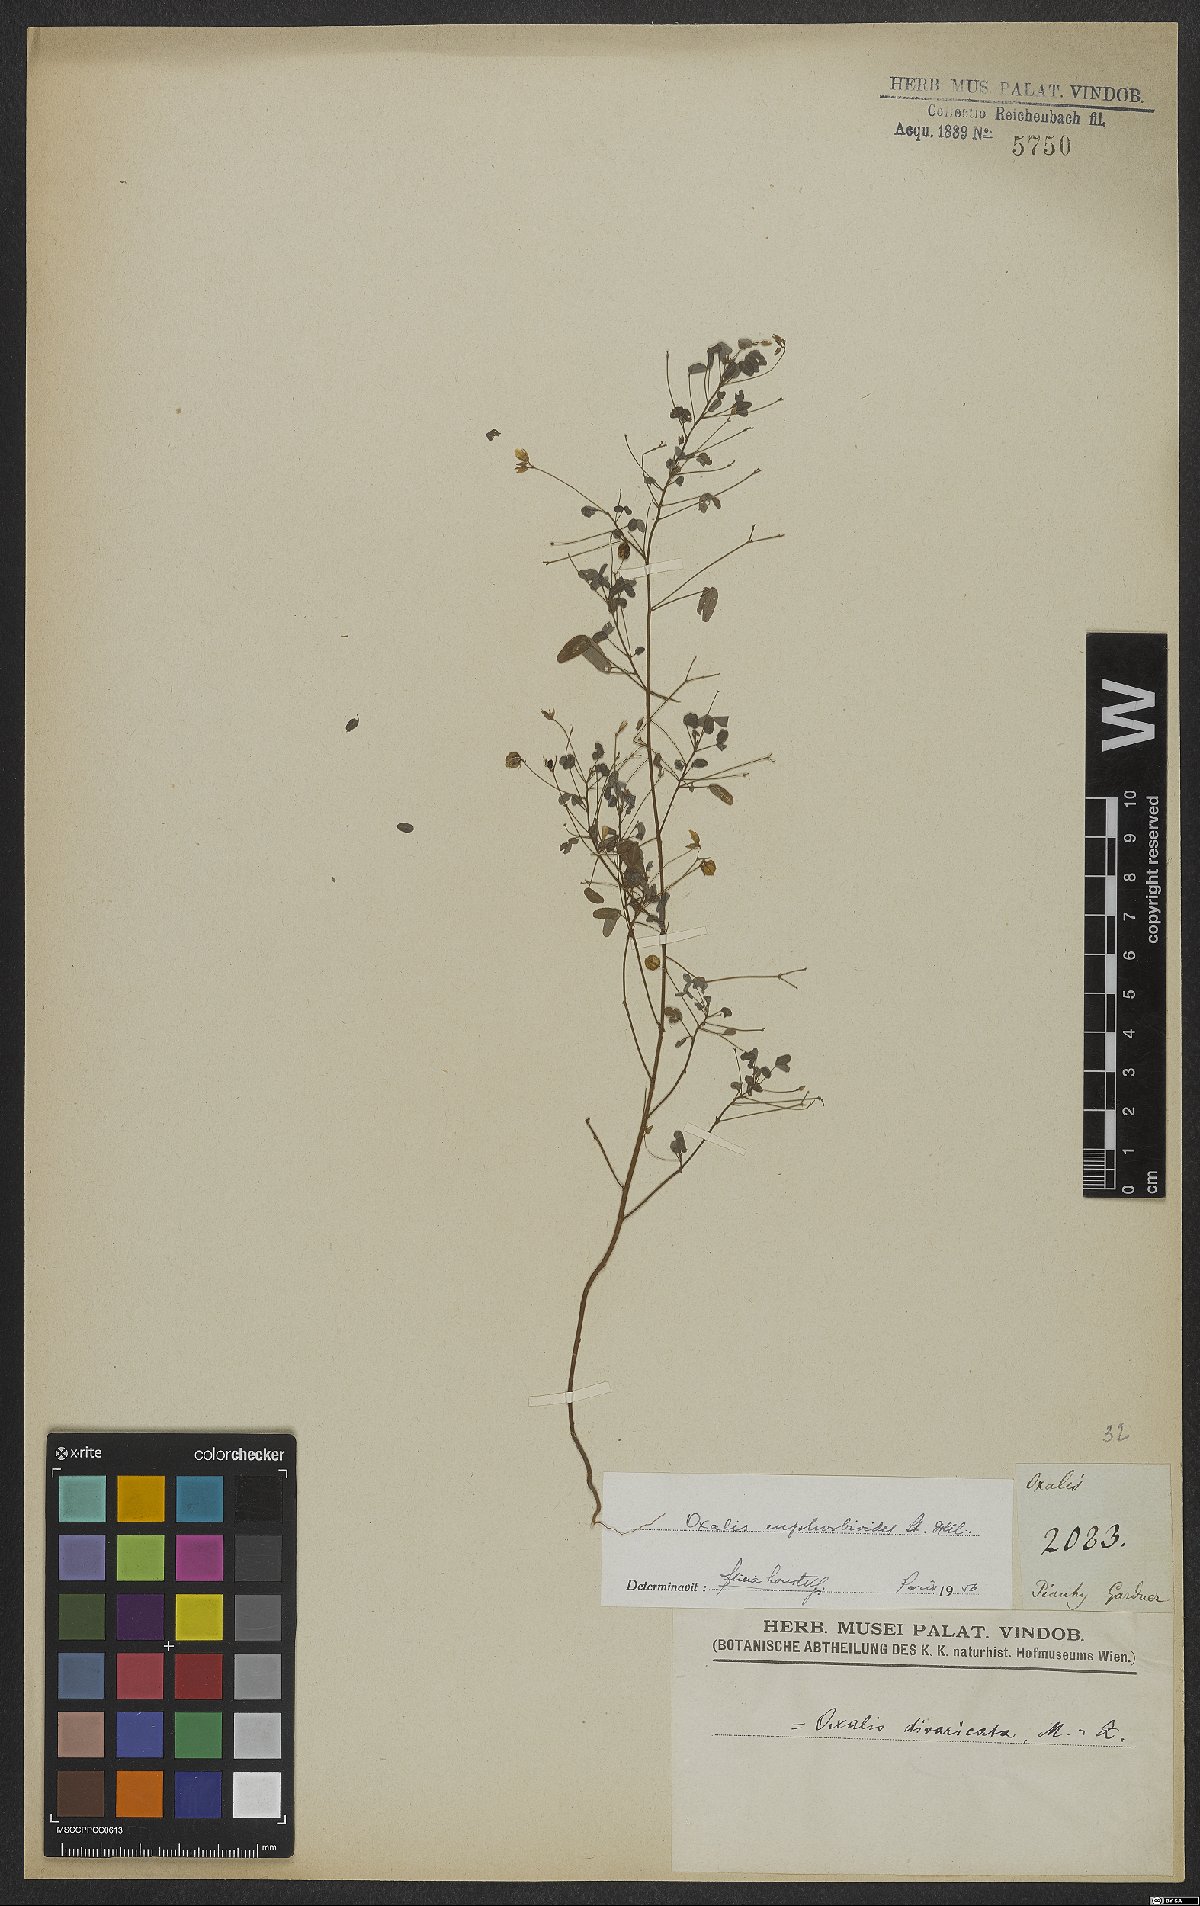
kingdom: Plantae
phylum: Tracheophyta
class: Magnoliopsida
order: Oxalidales
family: Oxalidaceae
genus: Oxalis
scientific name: Oxalis divaricata
